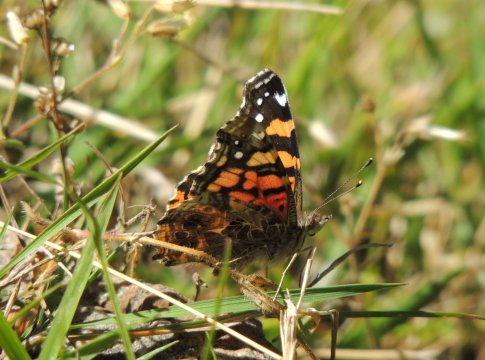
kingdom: Animalia
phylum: Arthropoda
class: Insecta
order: Lepidoptera
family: Nymphalidae
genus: Vanessa
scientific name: Vanessa annabella
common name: West Coast Lady
